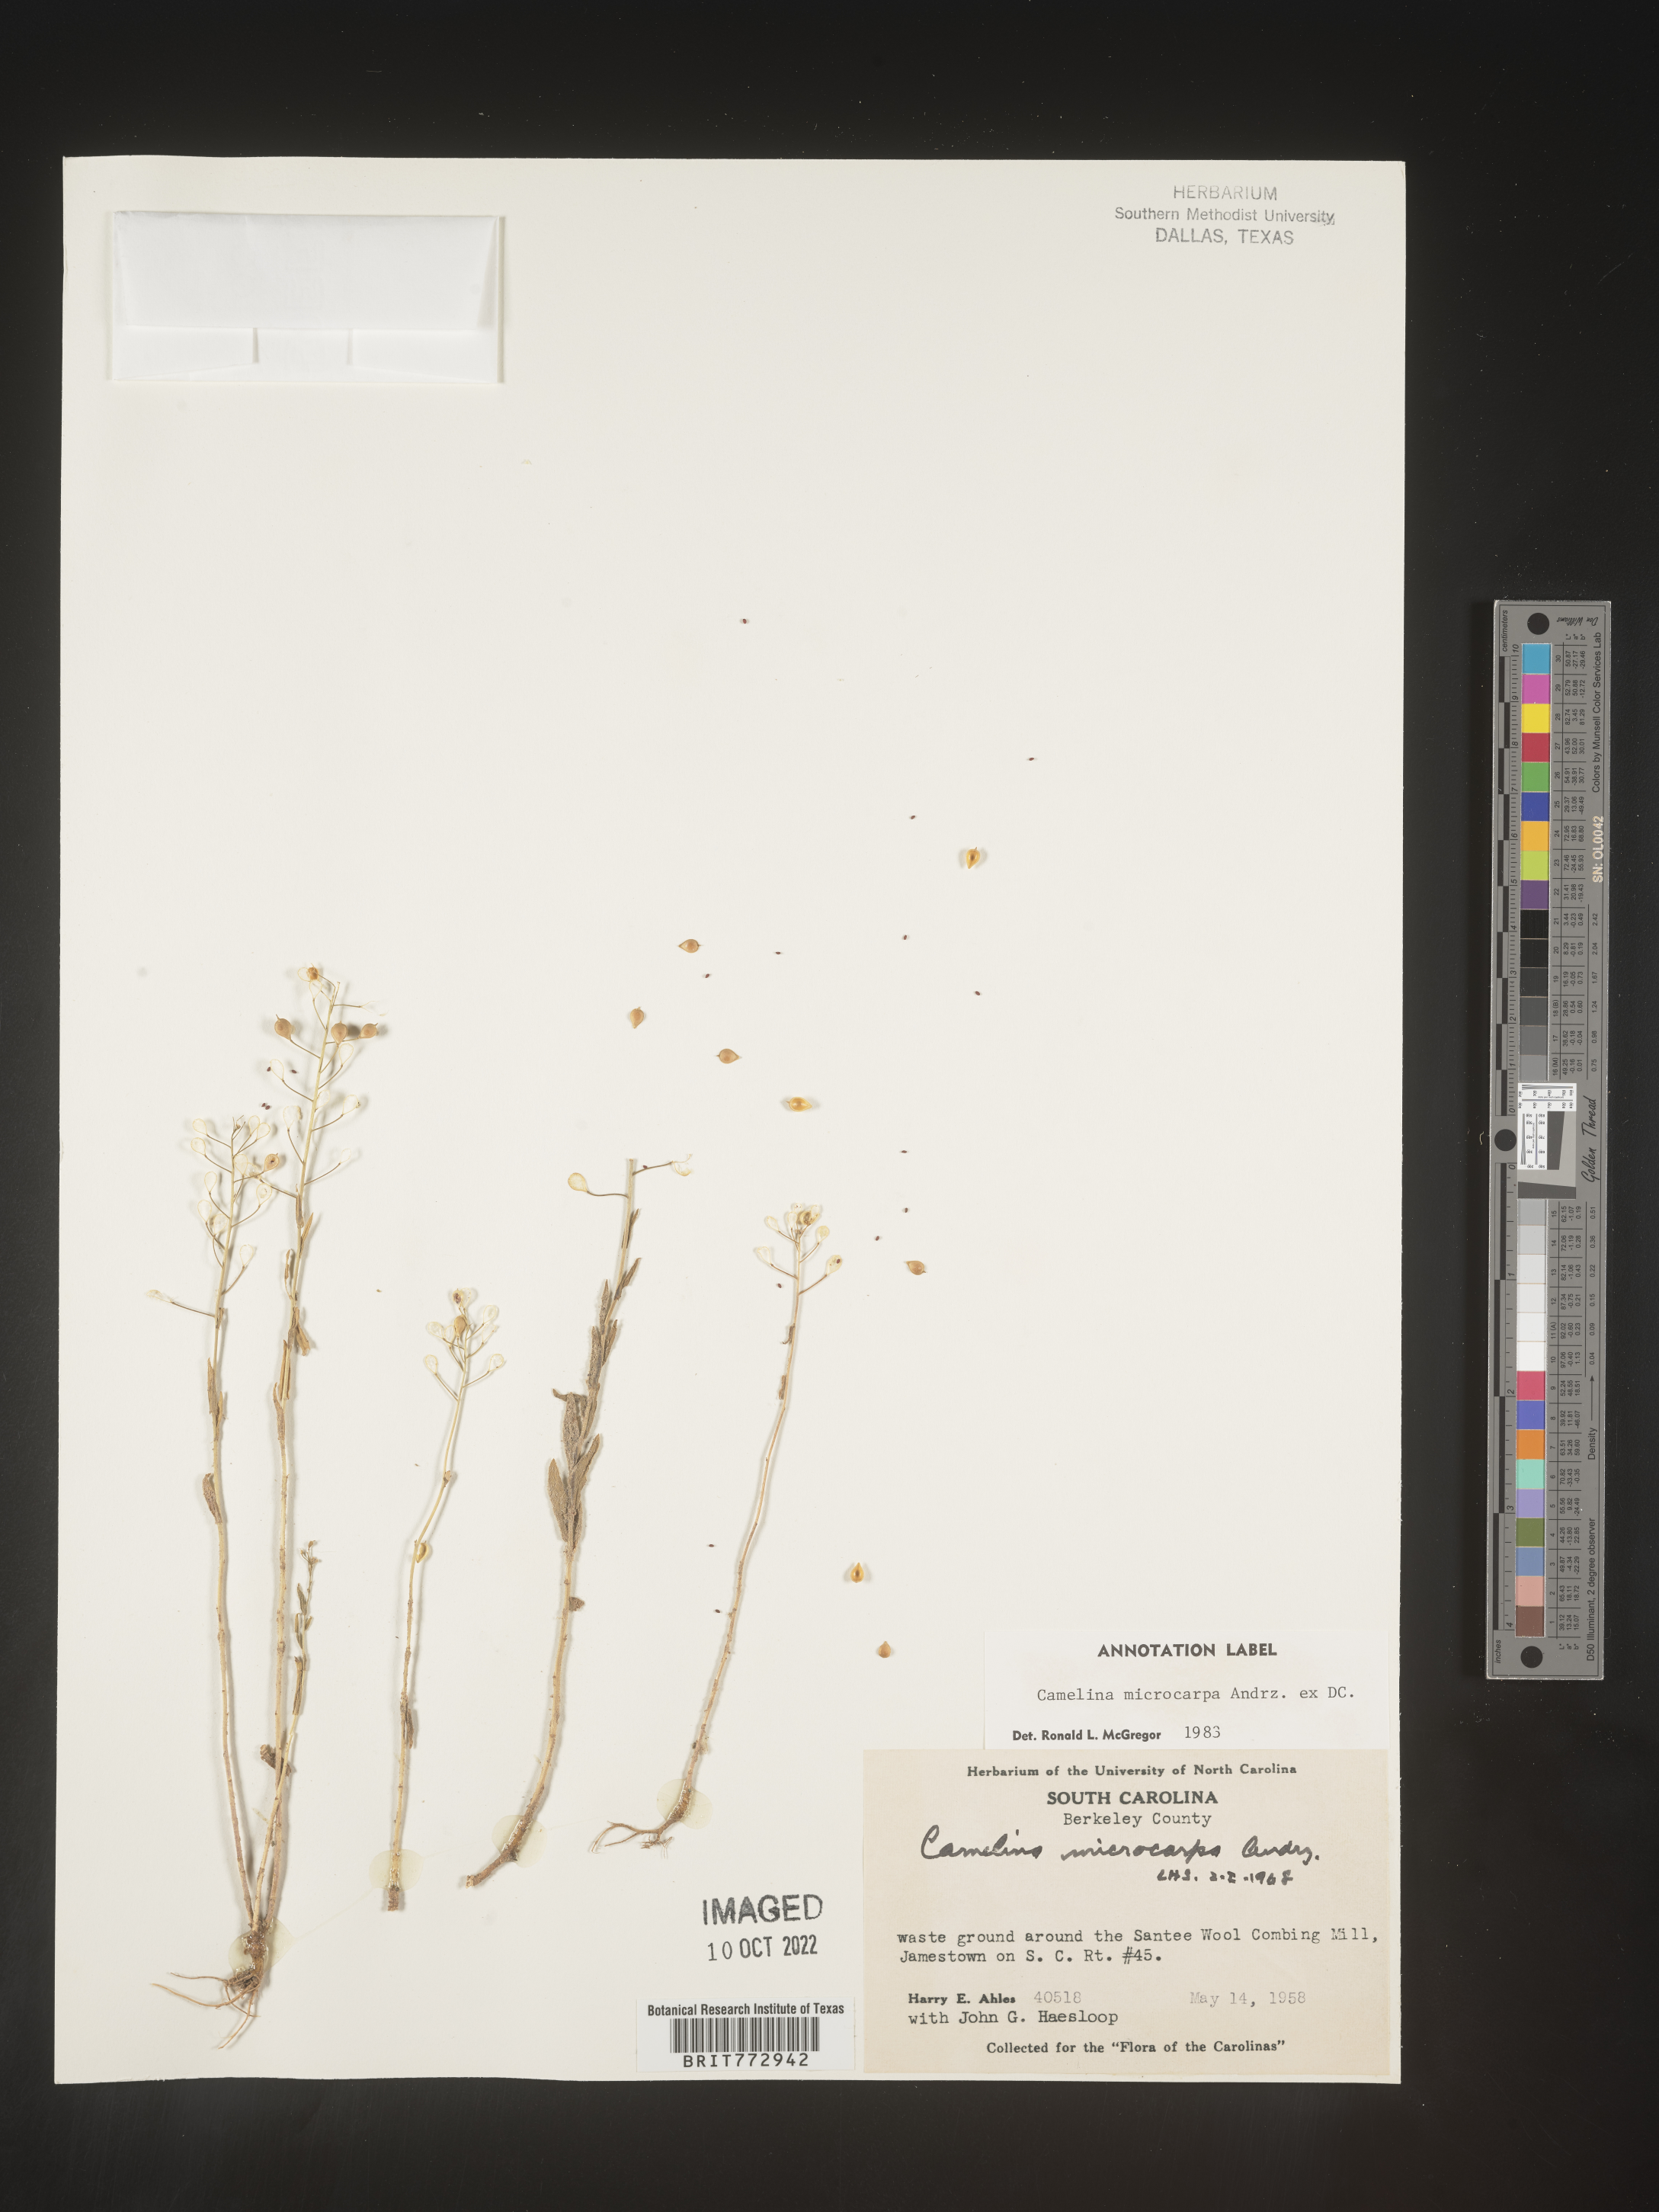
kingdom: Plantae
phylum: Tracheophyta
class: Magnoliopsida
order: Brassicales
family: Brassicaceae
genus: Camelina
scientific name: Camelina microcarpa
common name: Lesser gold-of-pleasure
